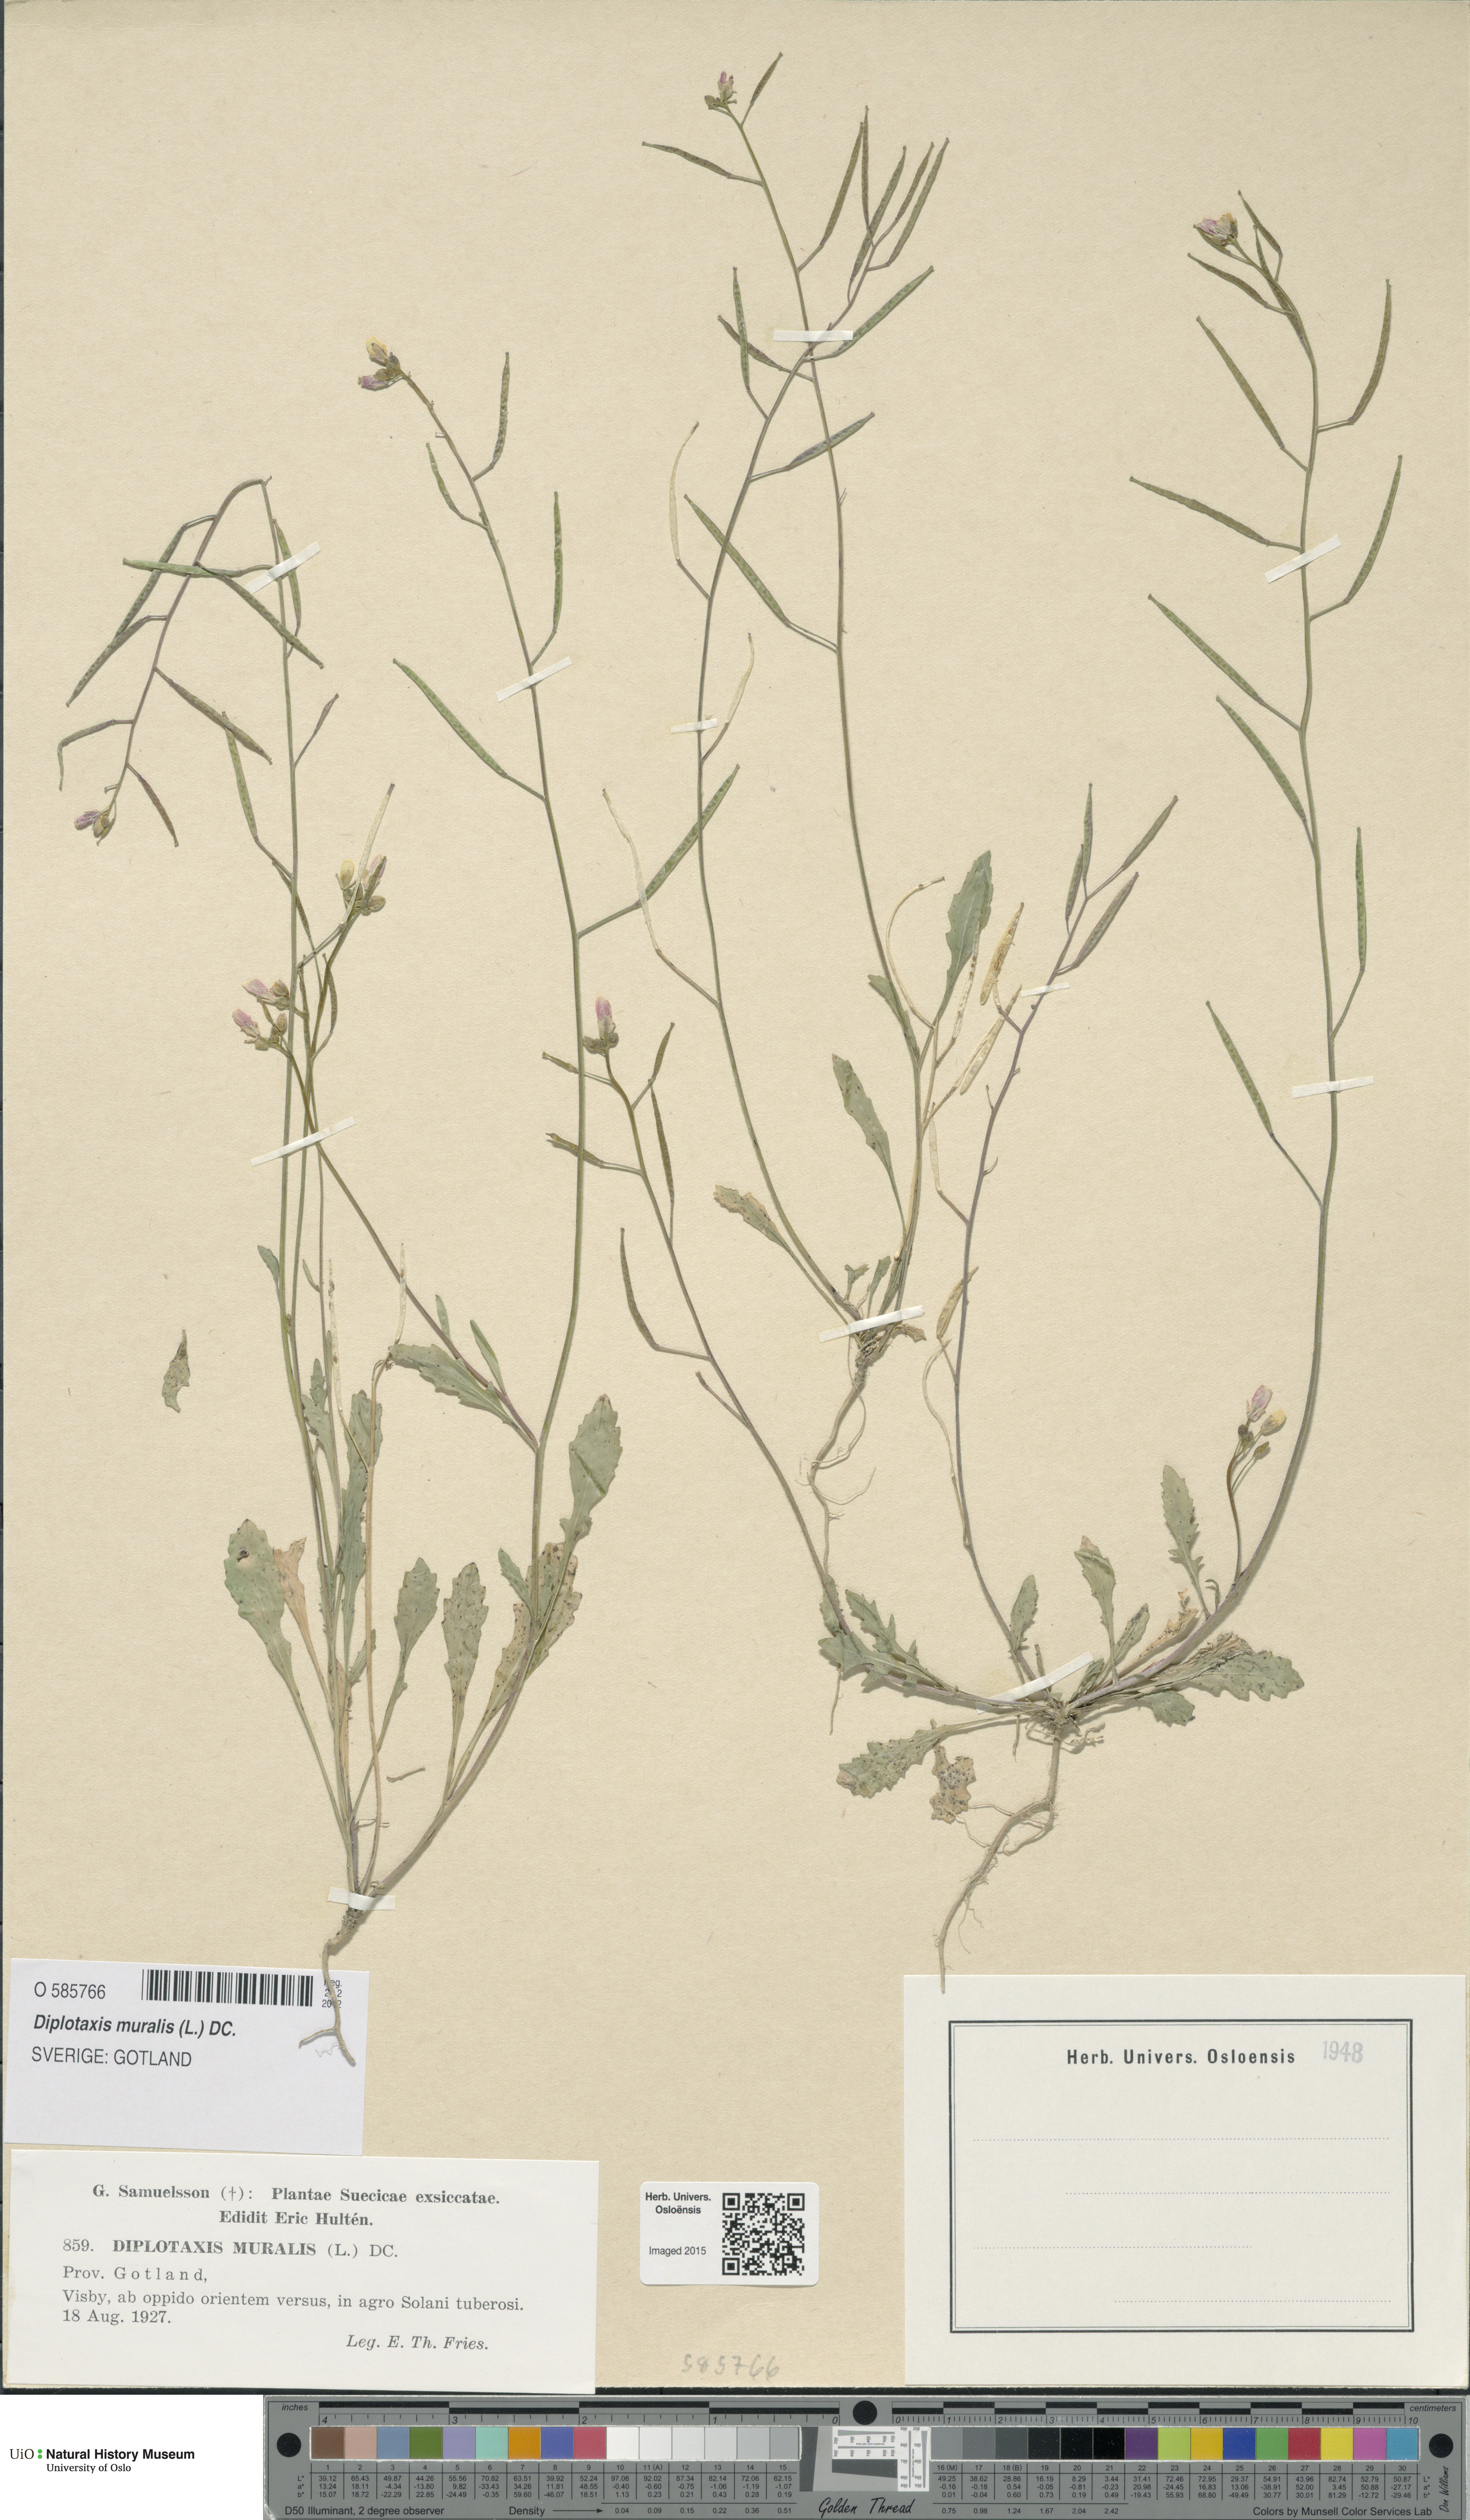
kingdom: Plantae
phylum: Tracheophyta
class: Magnoliopsida
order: Brassicales
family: Brassicaceae
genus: Diplotaxis
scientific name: Diplotaxis muralis
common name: Annual wall-rocket
